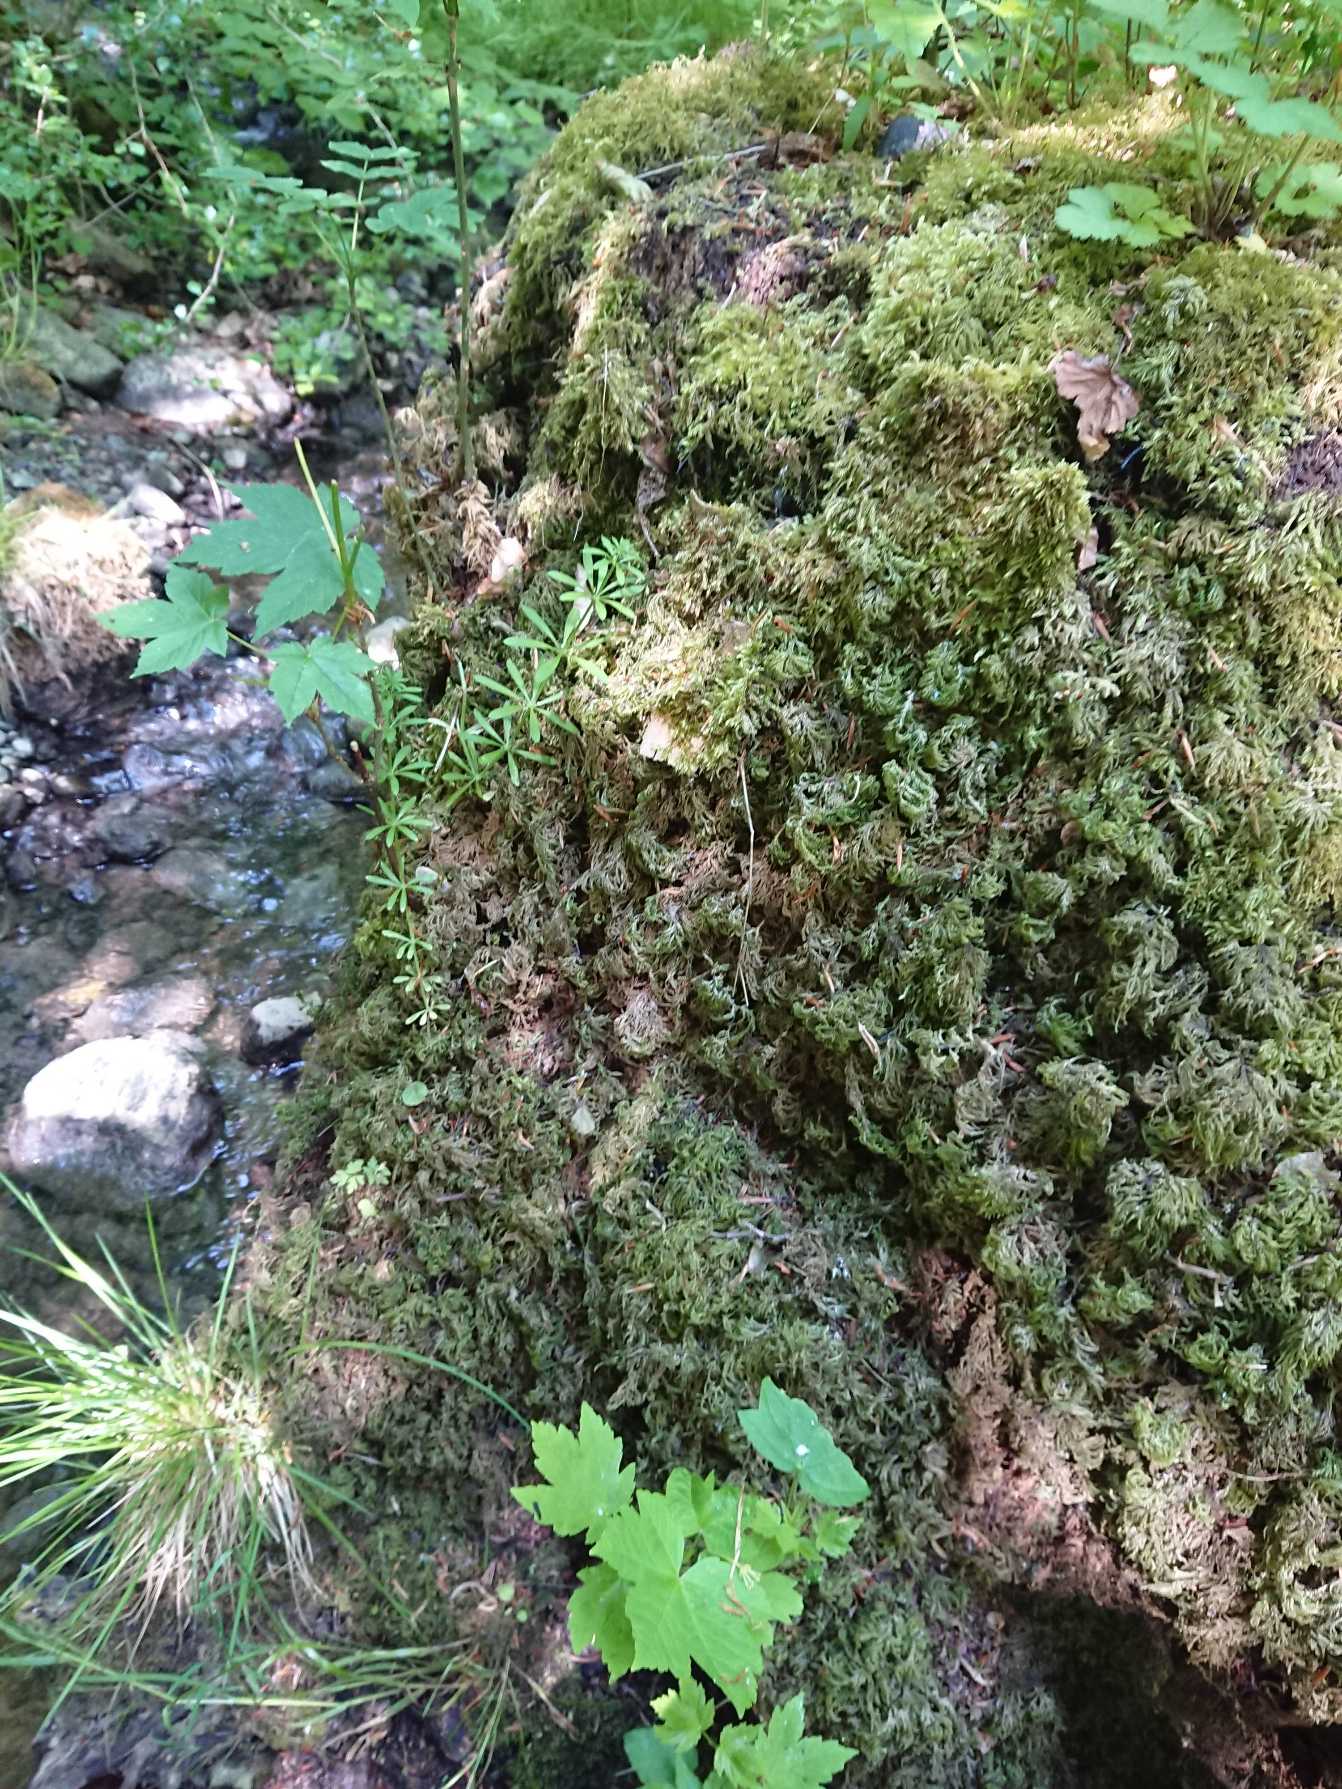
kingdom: Plantae
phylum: Bryophyta
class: Bryopsida
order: Hypnales
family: Neckeraceae
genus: Thamnobryum
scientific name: Thamnobryum alopecurum
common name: Mat bækkost
